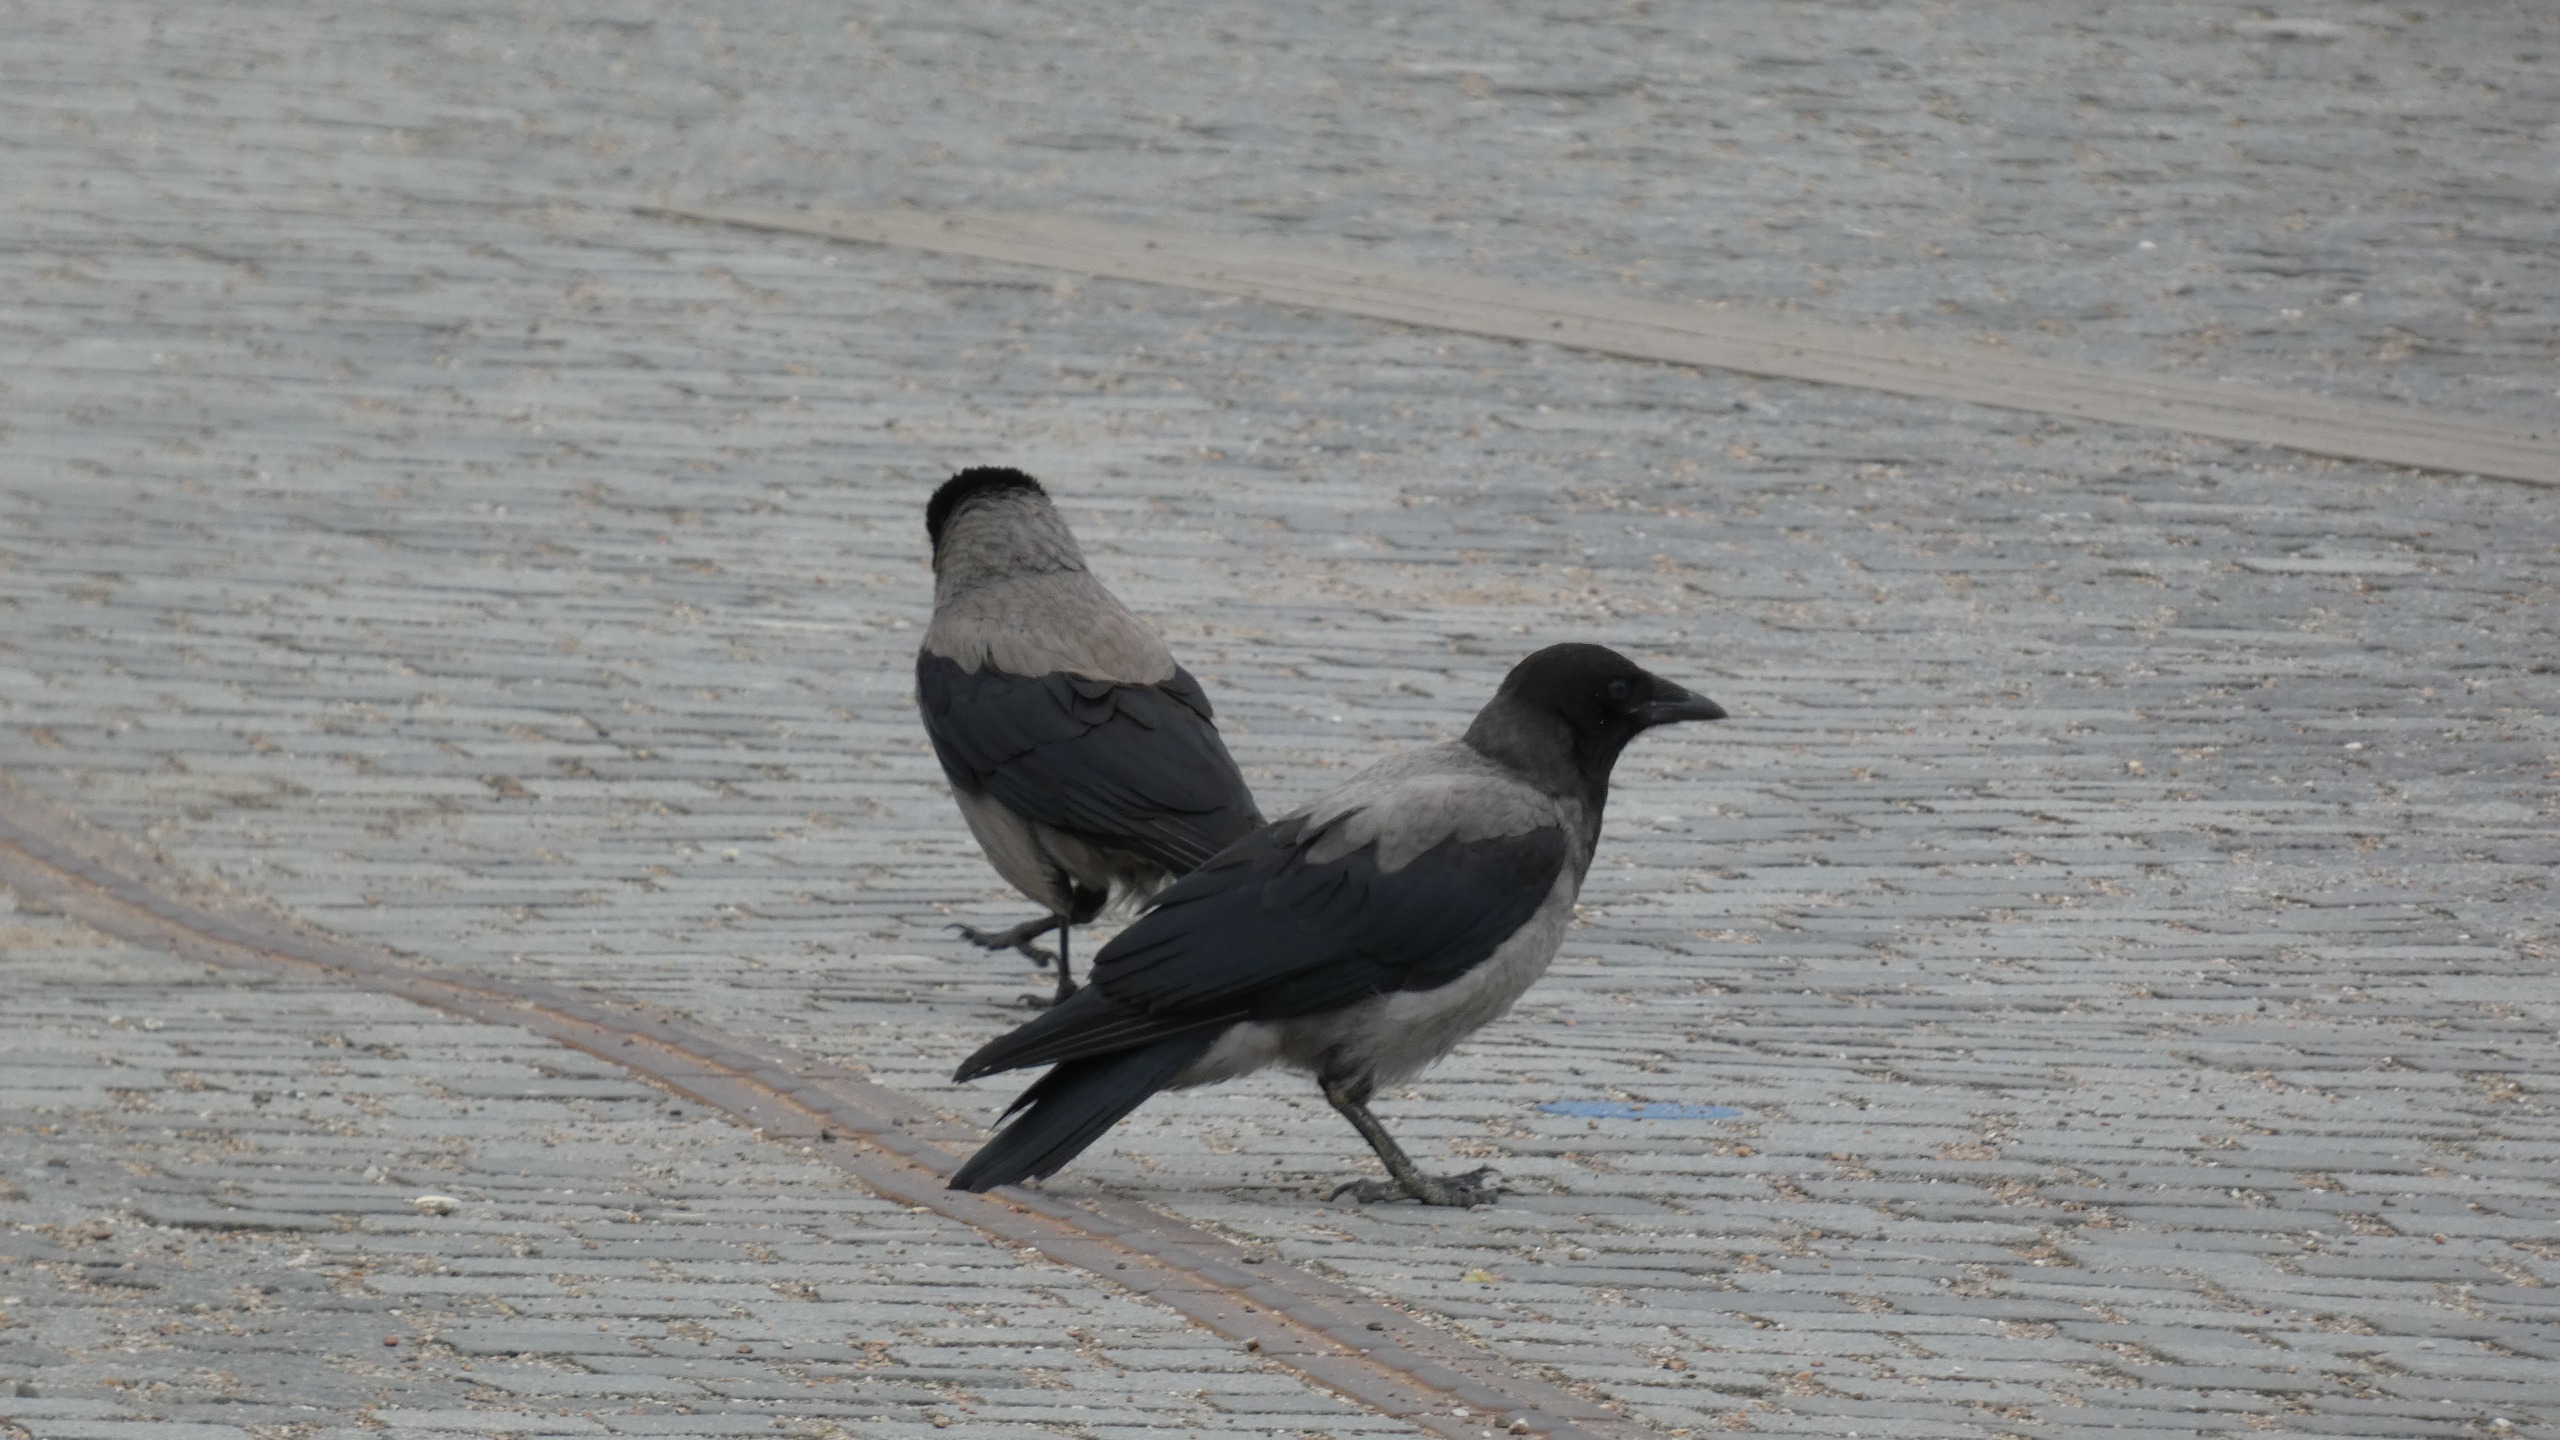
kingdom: Animalia
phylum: Chordata
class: Aves
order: Passeriformes
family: Corvidae
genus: Corvus
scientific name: Corvus cornix
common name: Gråkrage
